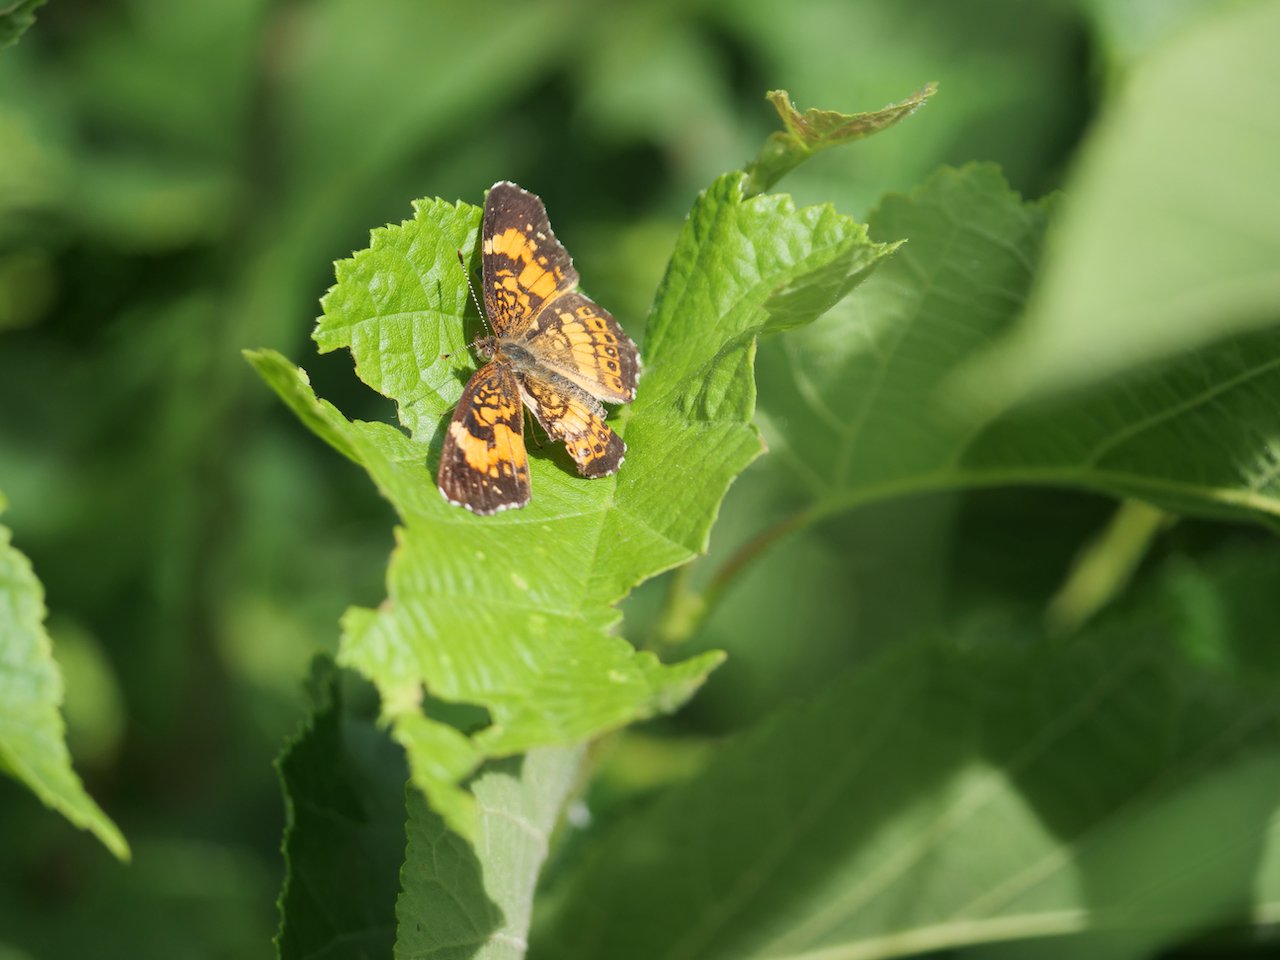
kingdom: Animalia
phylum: Arthropoda
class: Insecta
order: Lepidoptera
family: Nymphalidae
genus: Chlosyne
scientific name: Chlosyne nycteis
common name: Silvery Checkerspot
